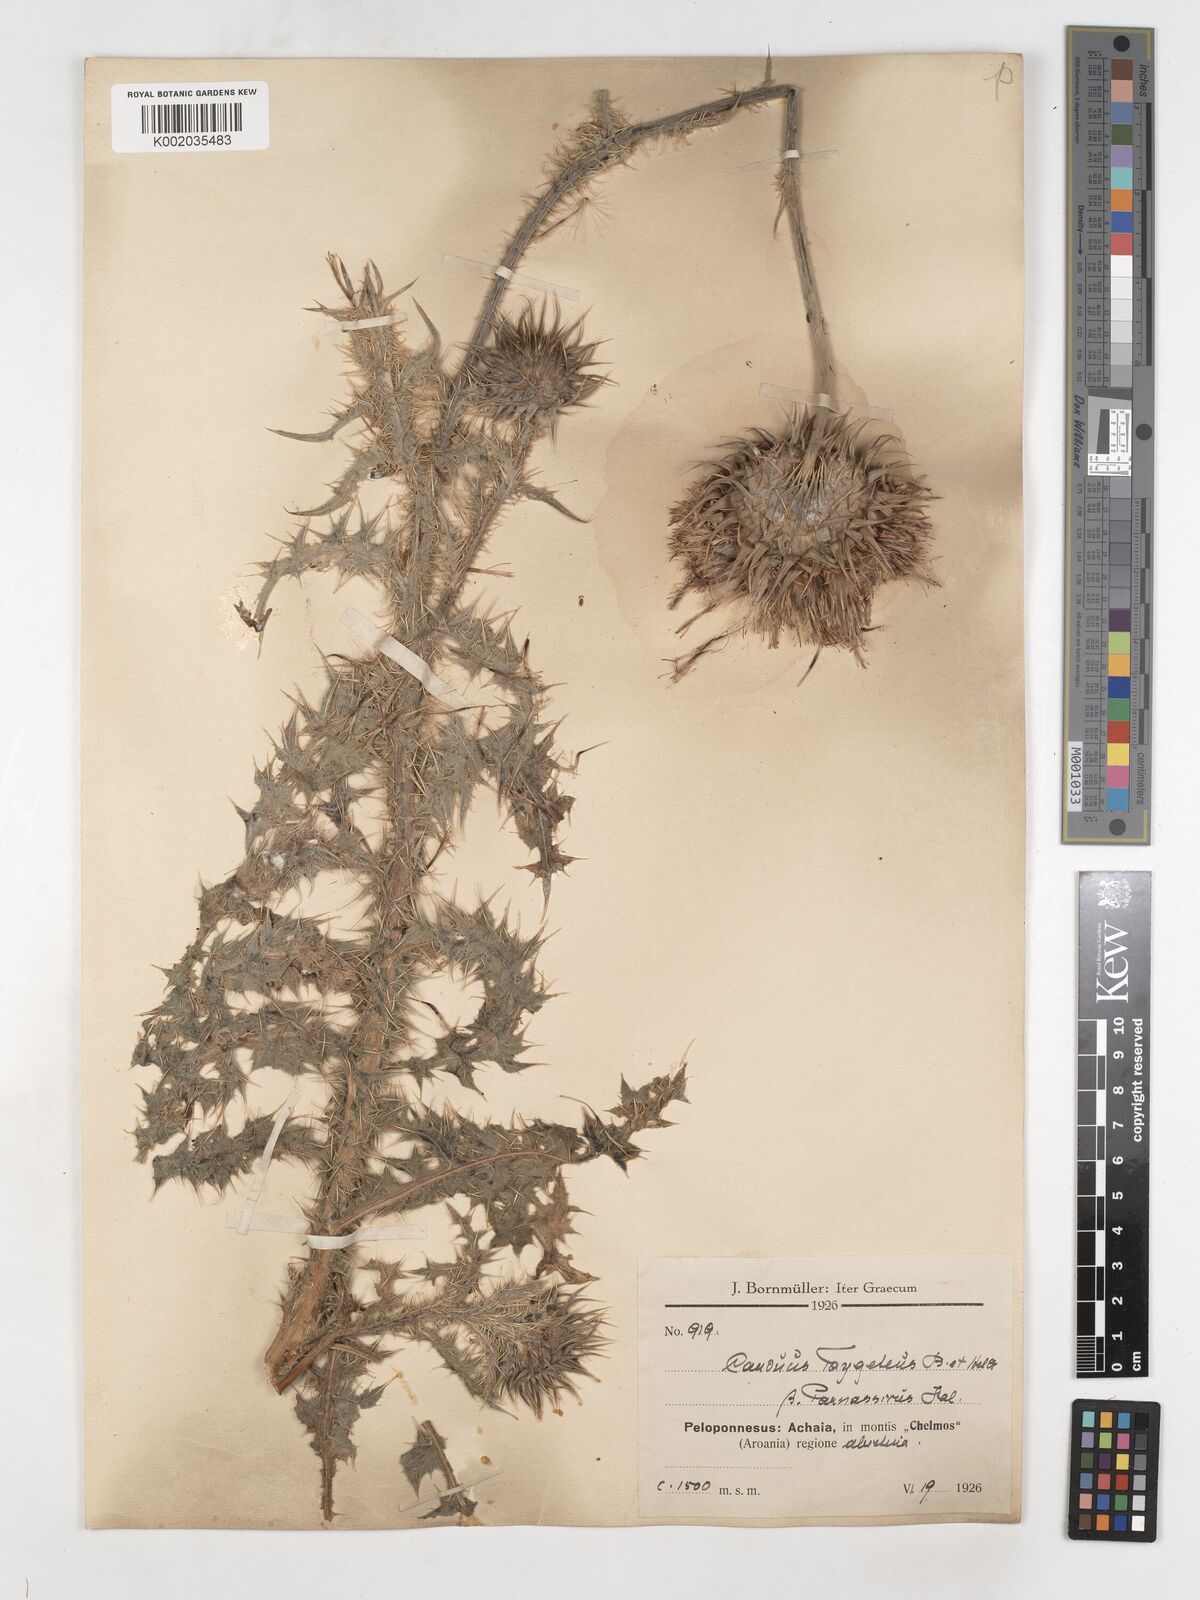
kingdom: Plantae
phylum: Tracheophyta
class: Magnoliopsida
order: Asterales
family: Asteraceae
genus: Carduus
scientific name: Carduus nutans
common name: Musk thistle
